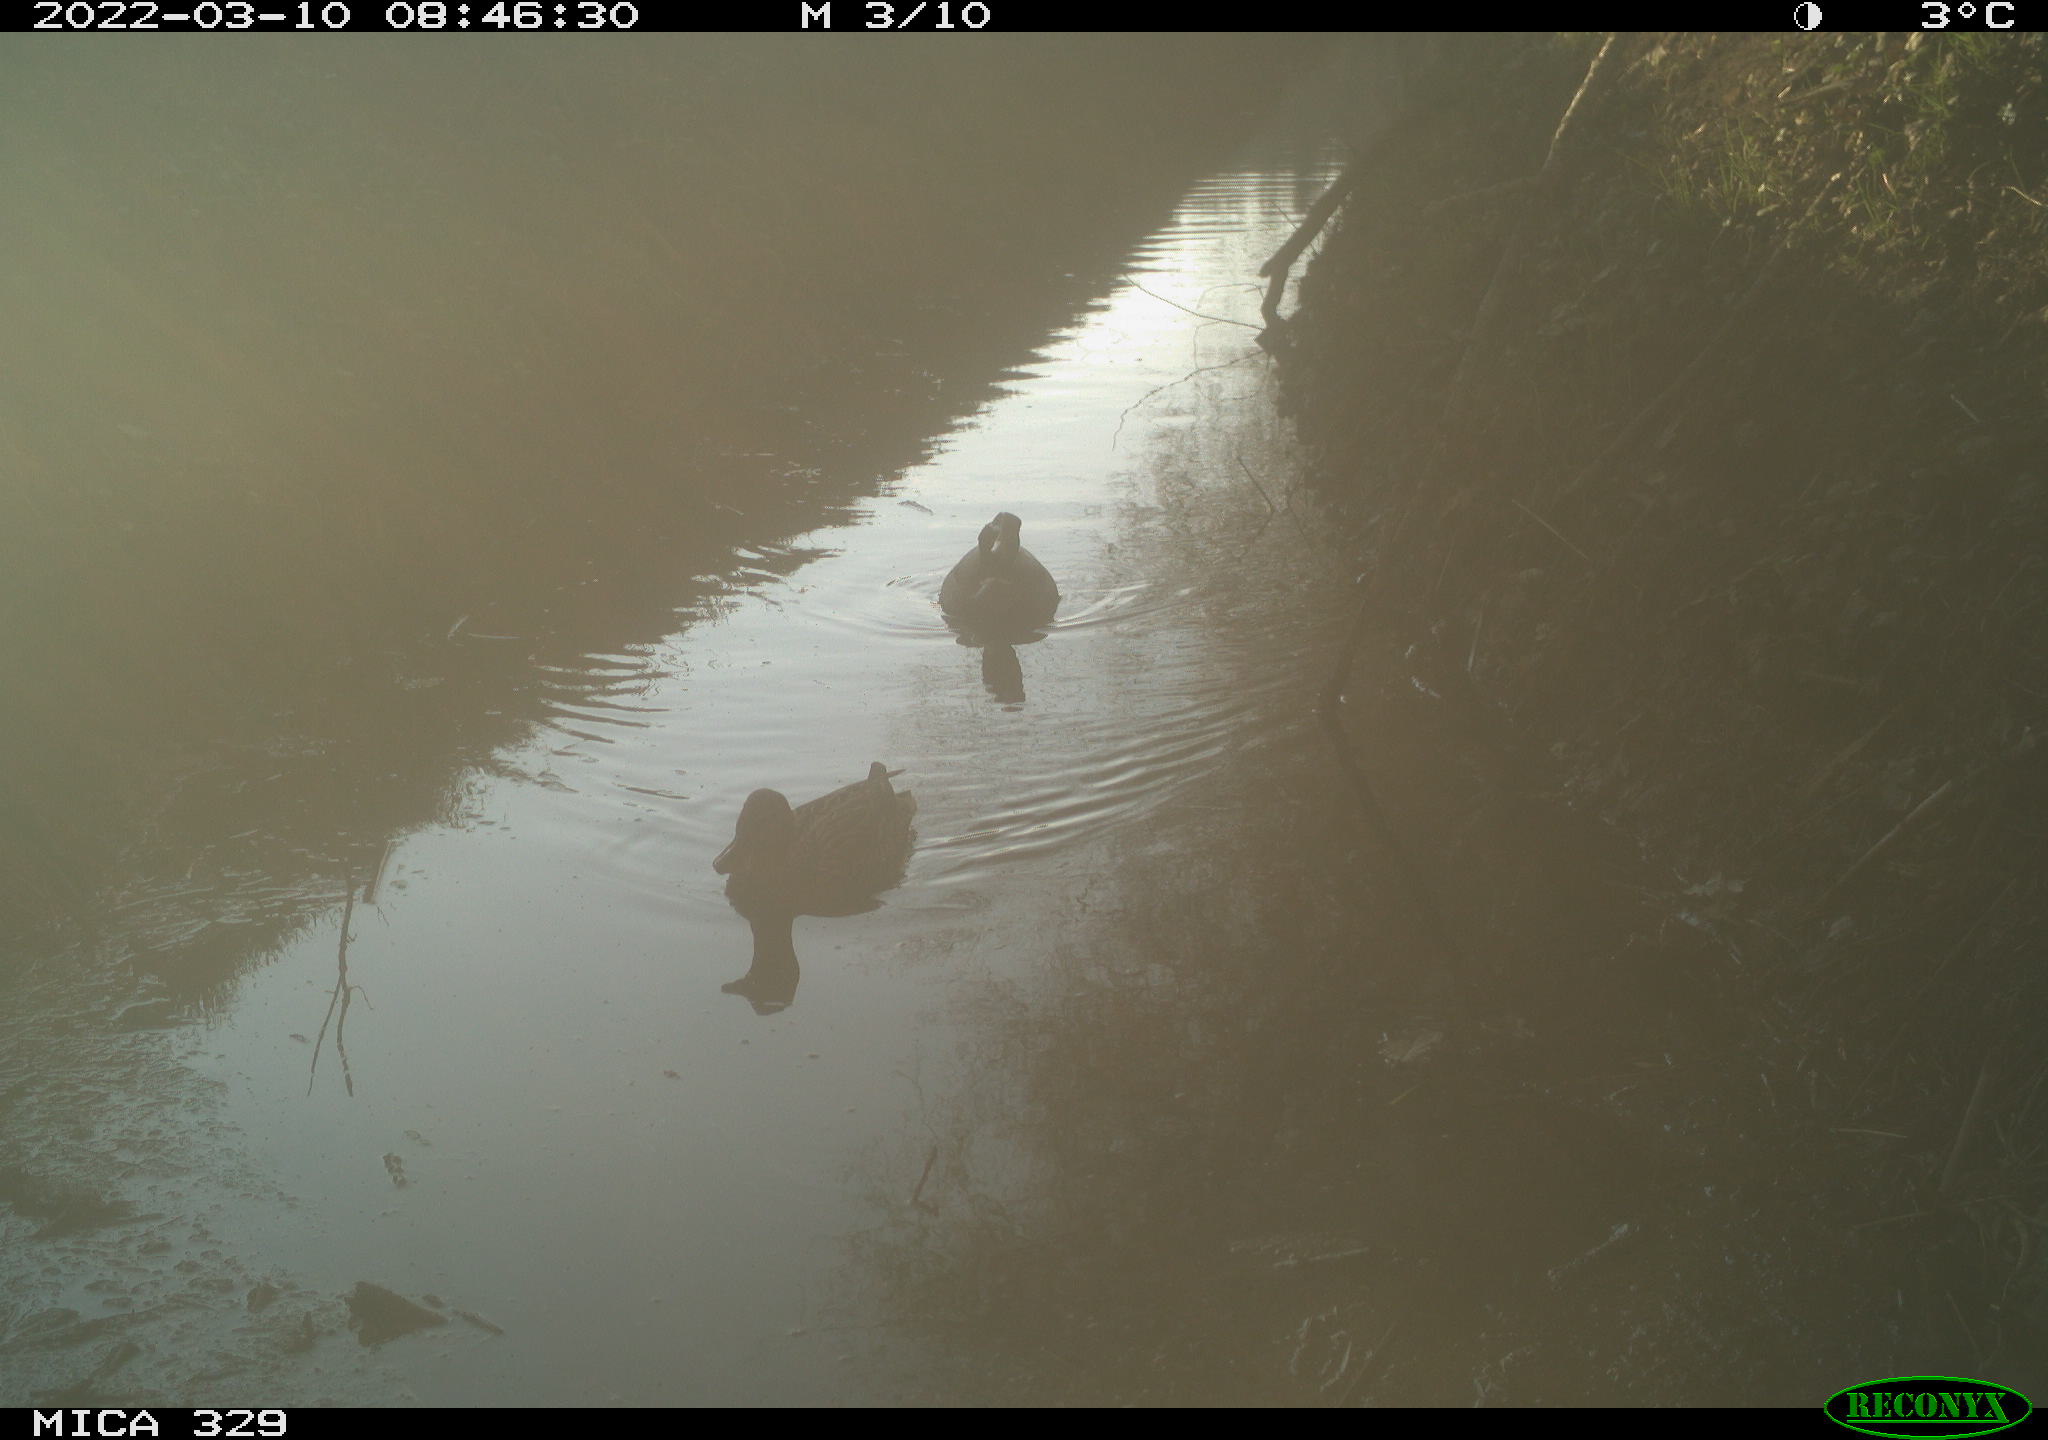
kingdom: Animalia
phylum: Chordata
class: Aves
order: Anseriformes
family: Anatidae
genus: Anas
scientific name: Anas platyrhynchos
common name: Mallard
